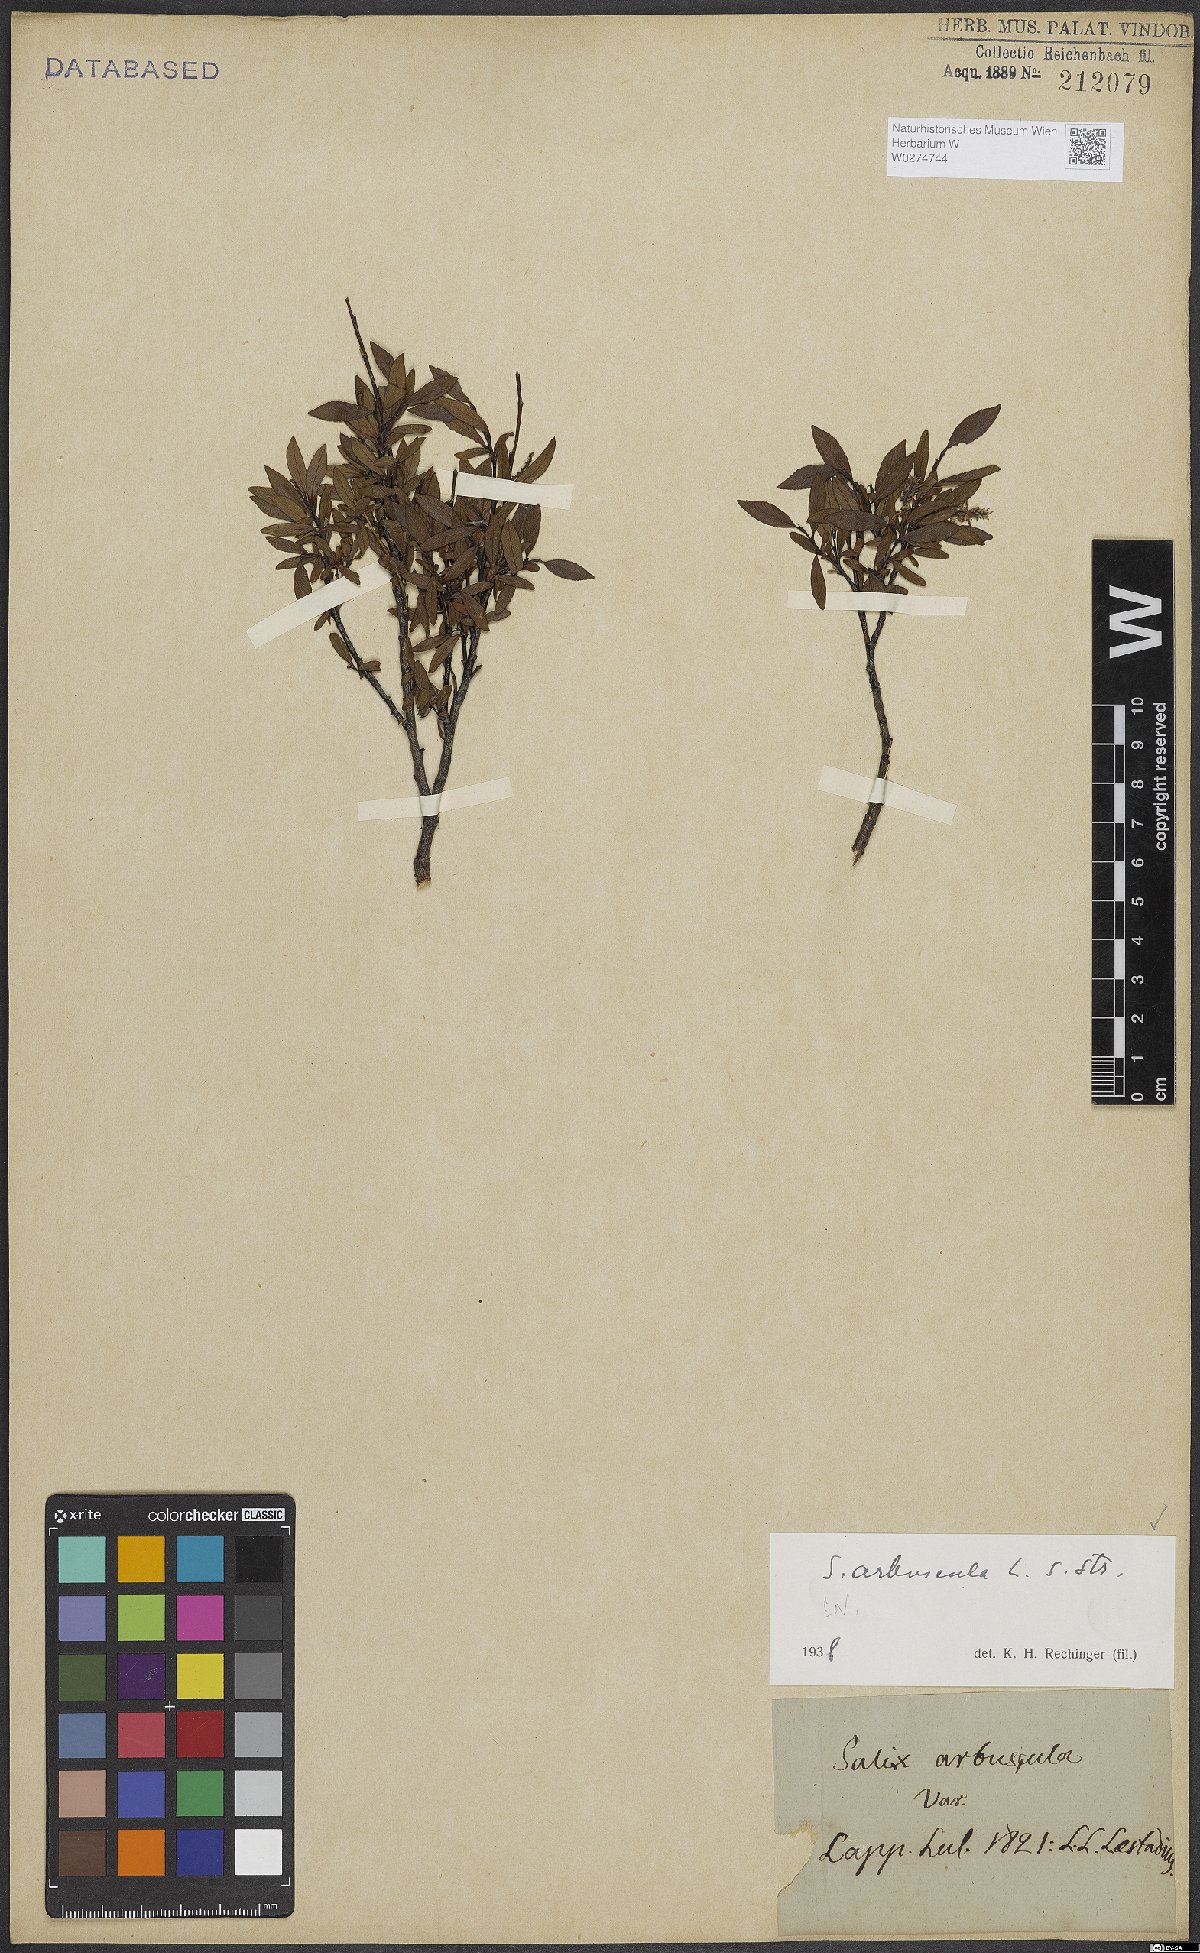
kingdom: Plantae
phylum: Tracheophyta
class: Magnoliopsida
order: Malpighiales
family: Salicaceae
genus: Salix
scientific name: Salix arbuscula
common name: Mountain willow
